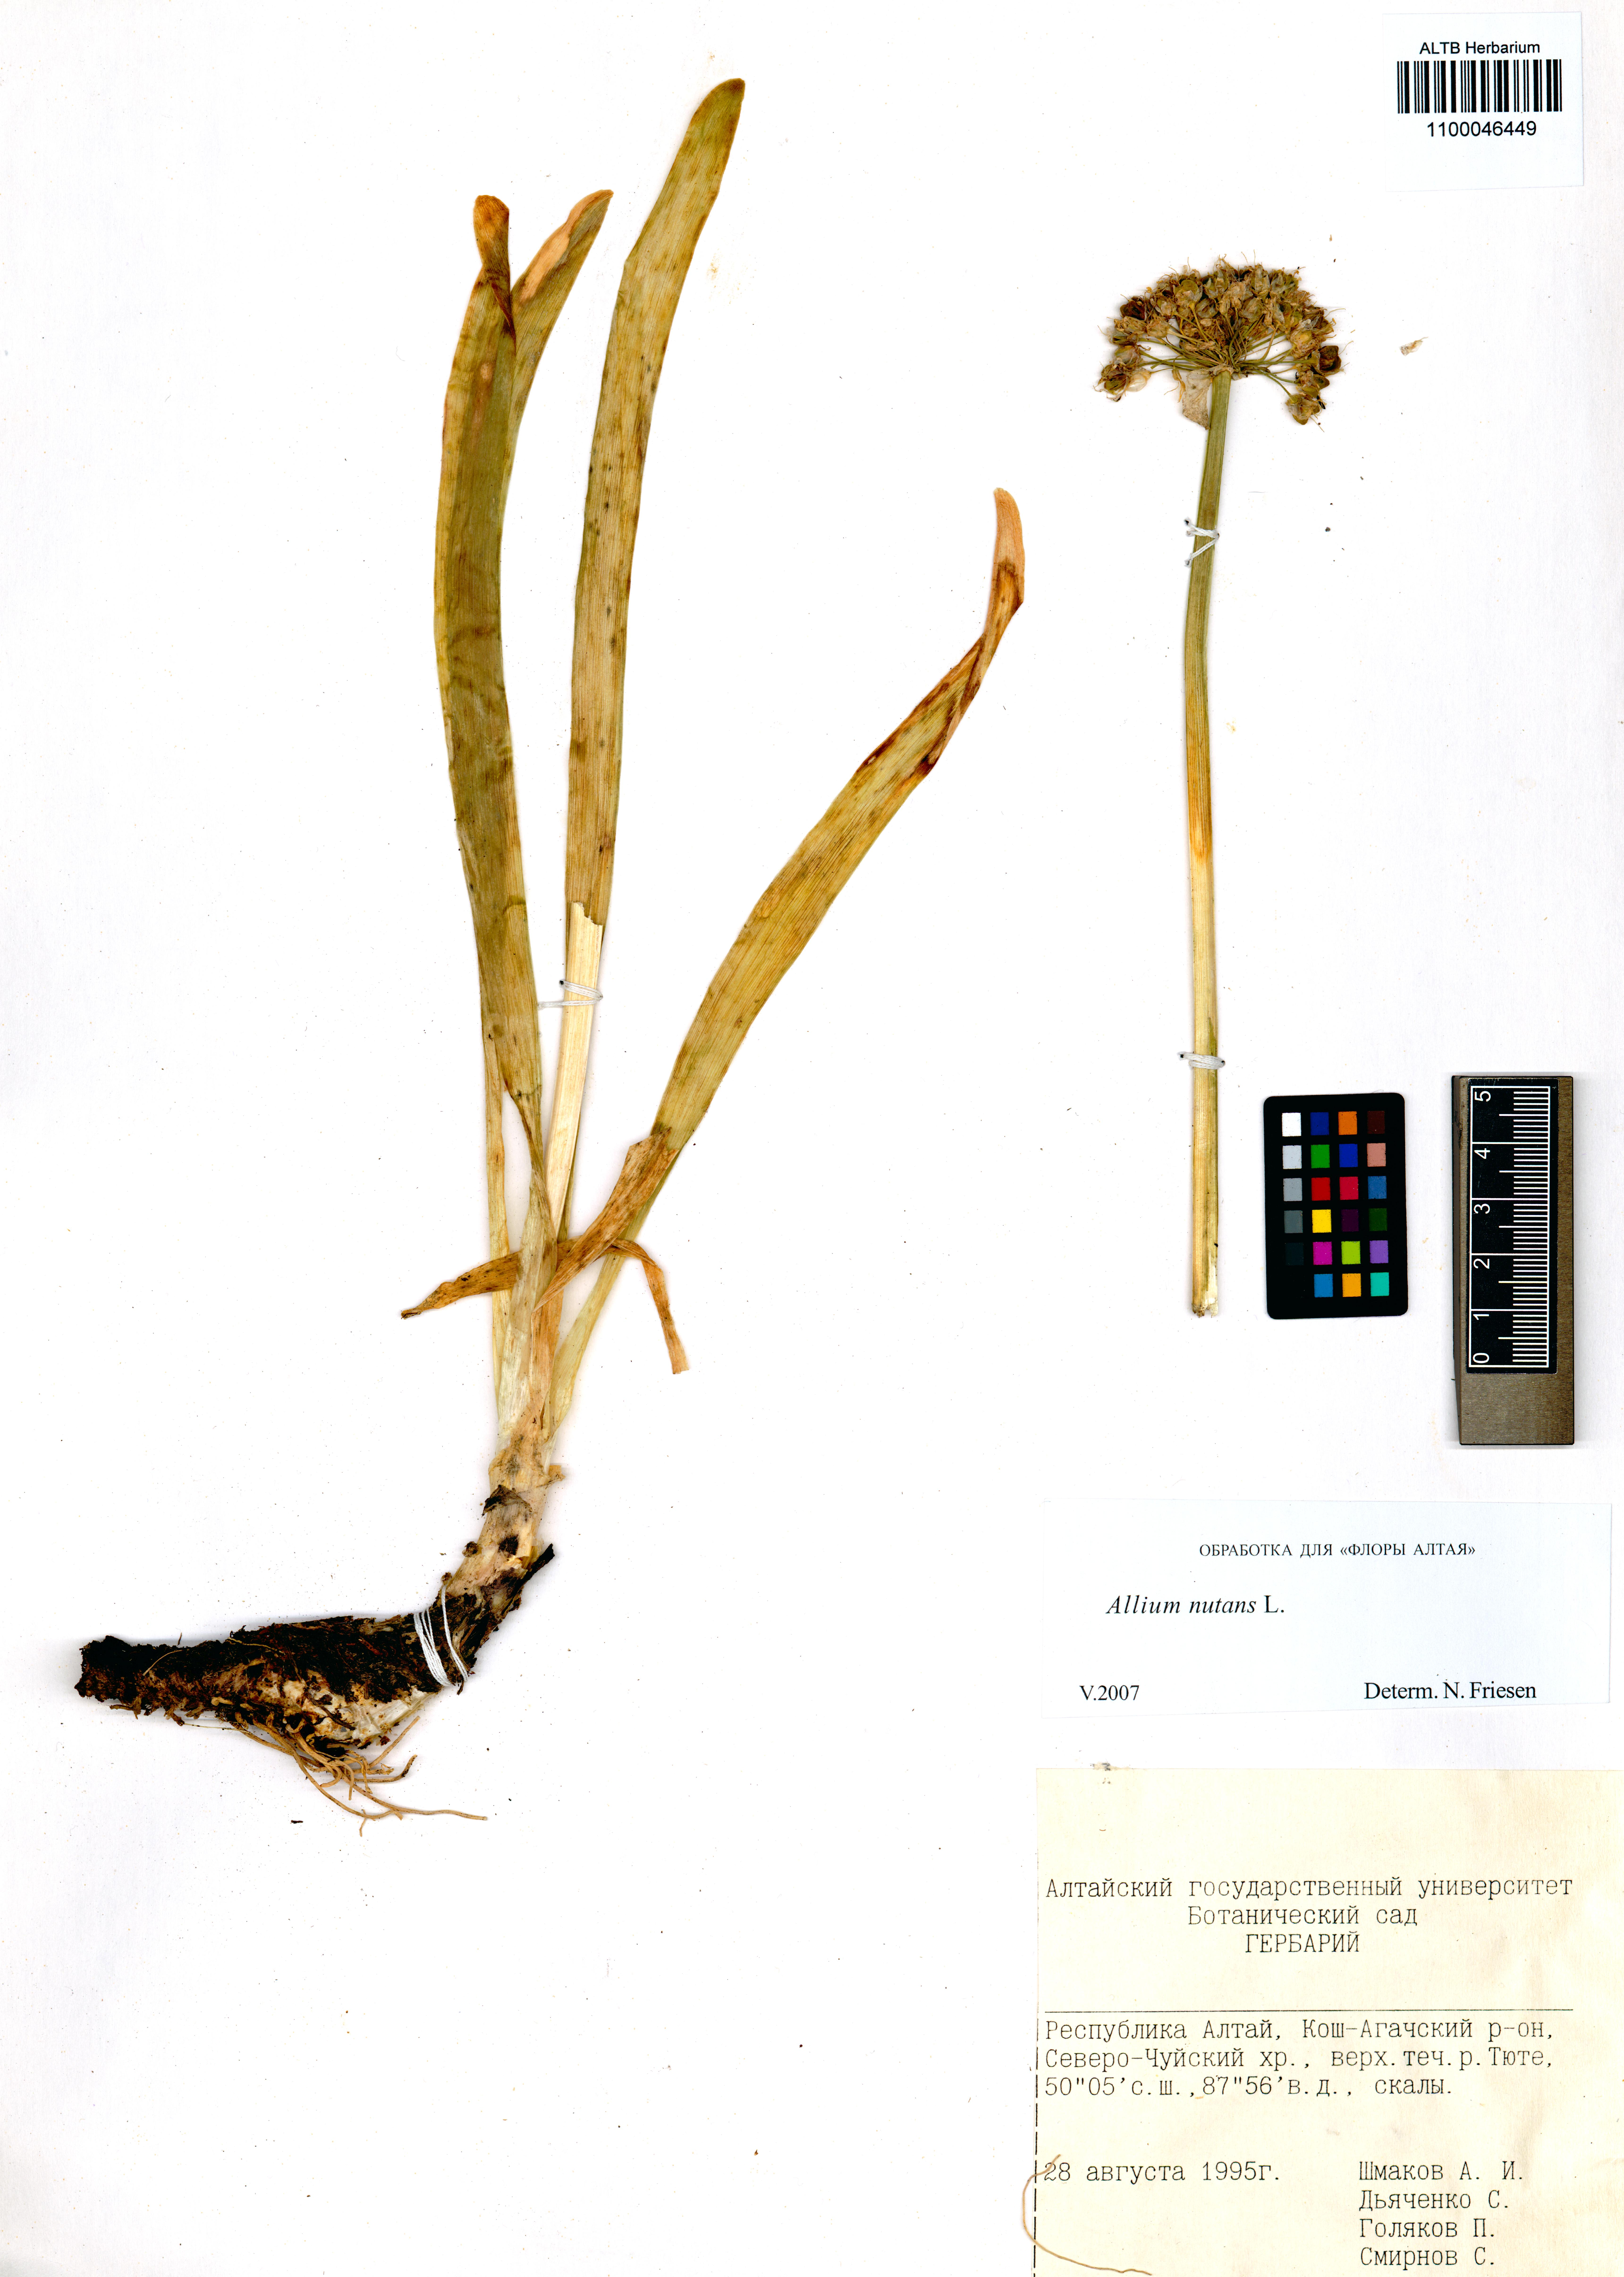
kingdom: Plantae
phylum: Tracheophyta
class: Liliopsida
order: Asparagales
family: Amaryllidaceae
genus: Allium
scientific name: Allium nutans
